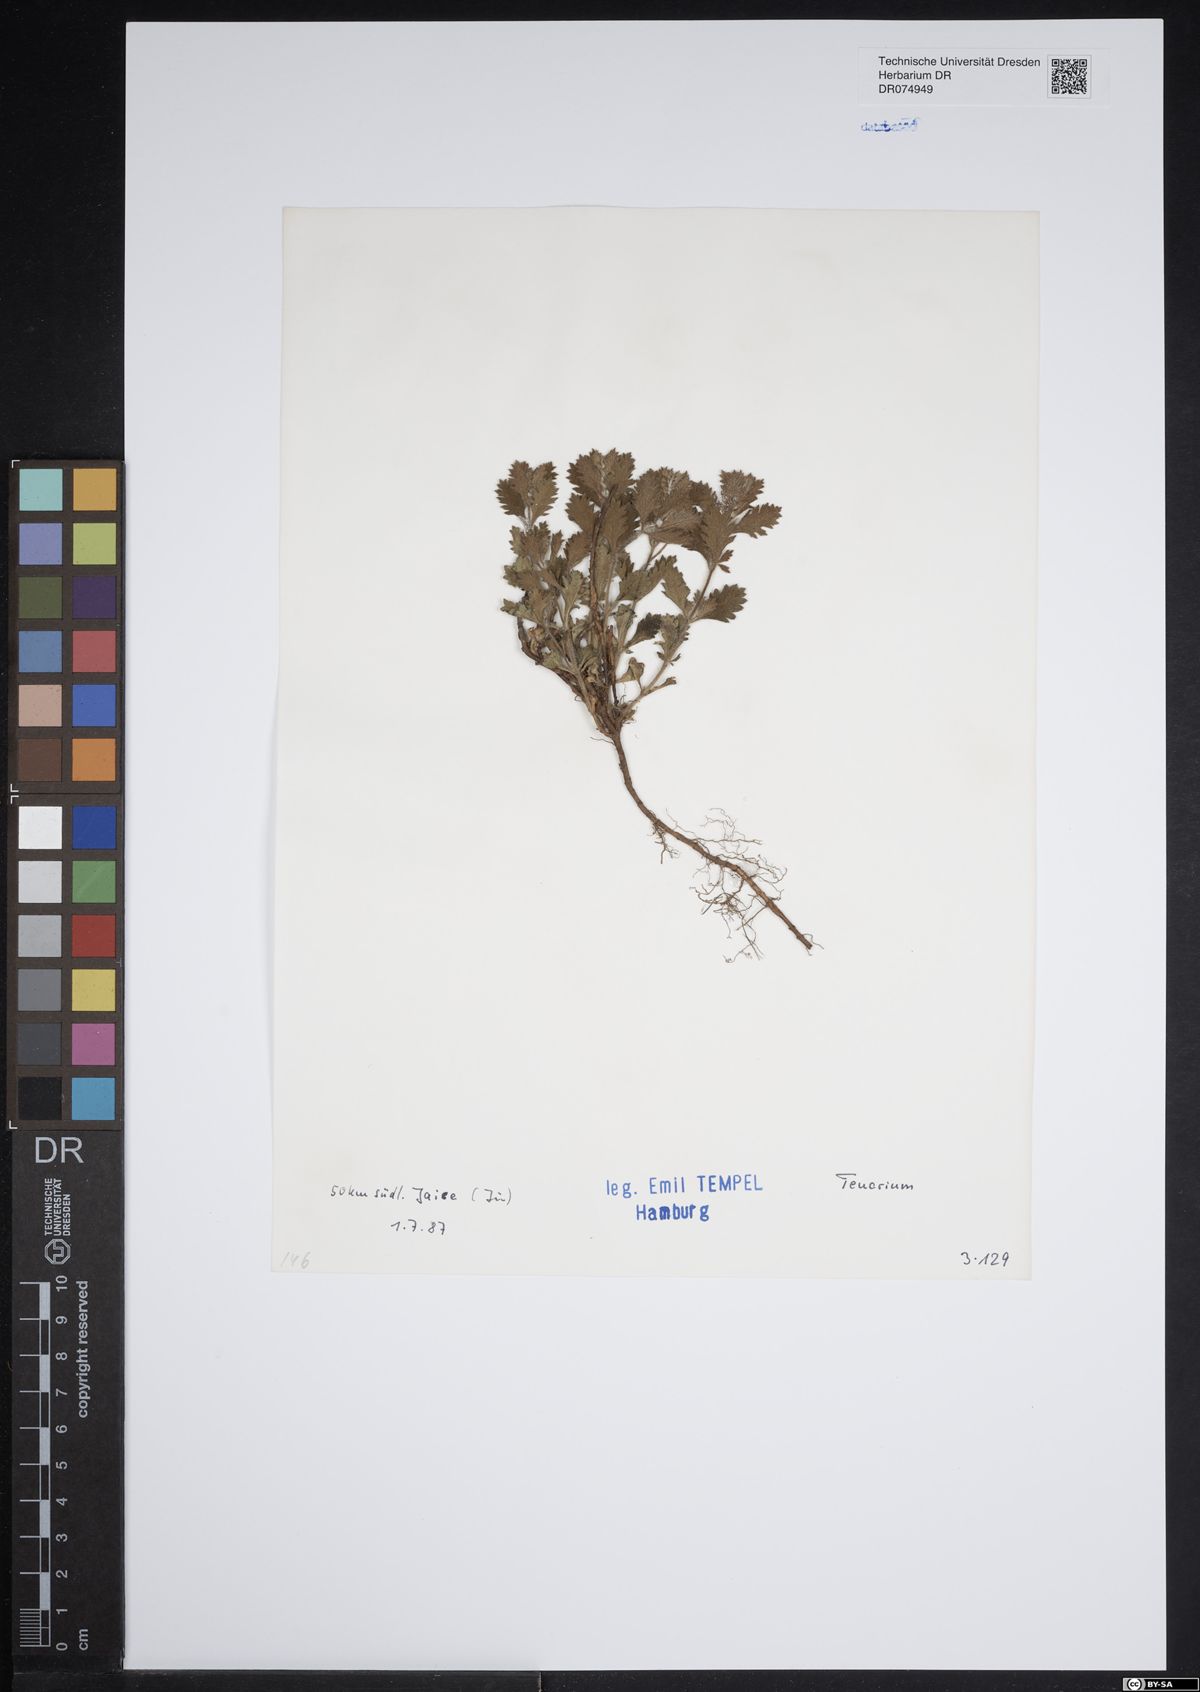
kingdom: Plantae
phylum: Tracheophyta
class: Magnoliopsida
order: Lamiales
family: Lamiaceae
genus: Teucrium
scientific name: Teucrium
